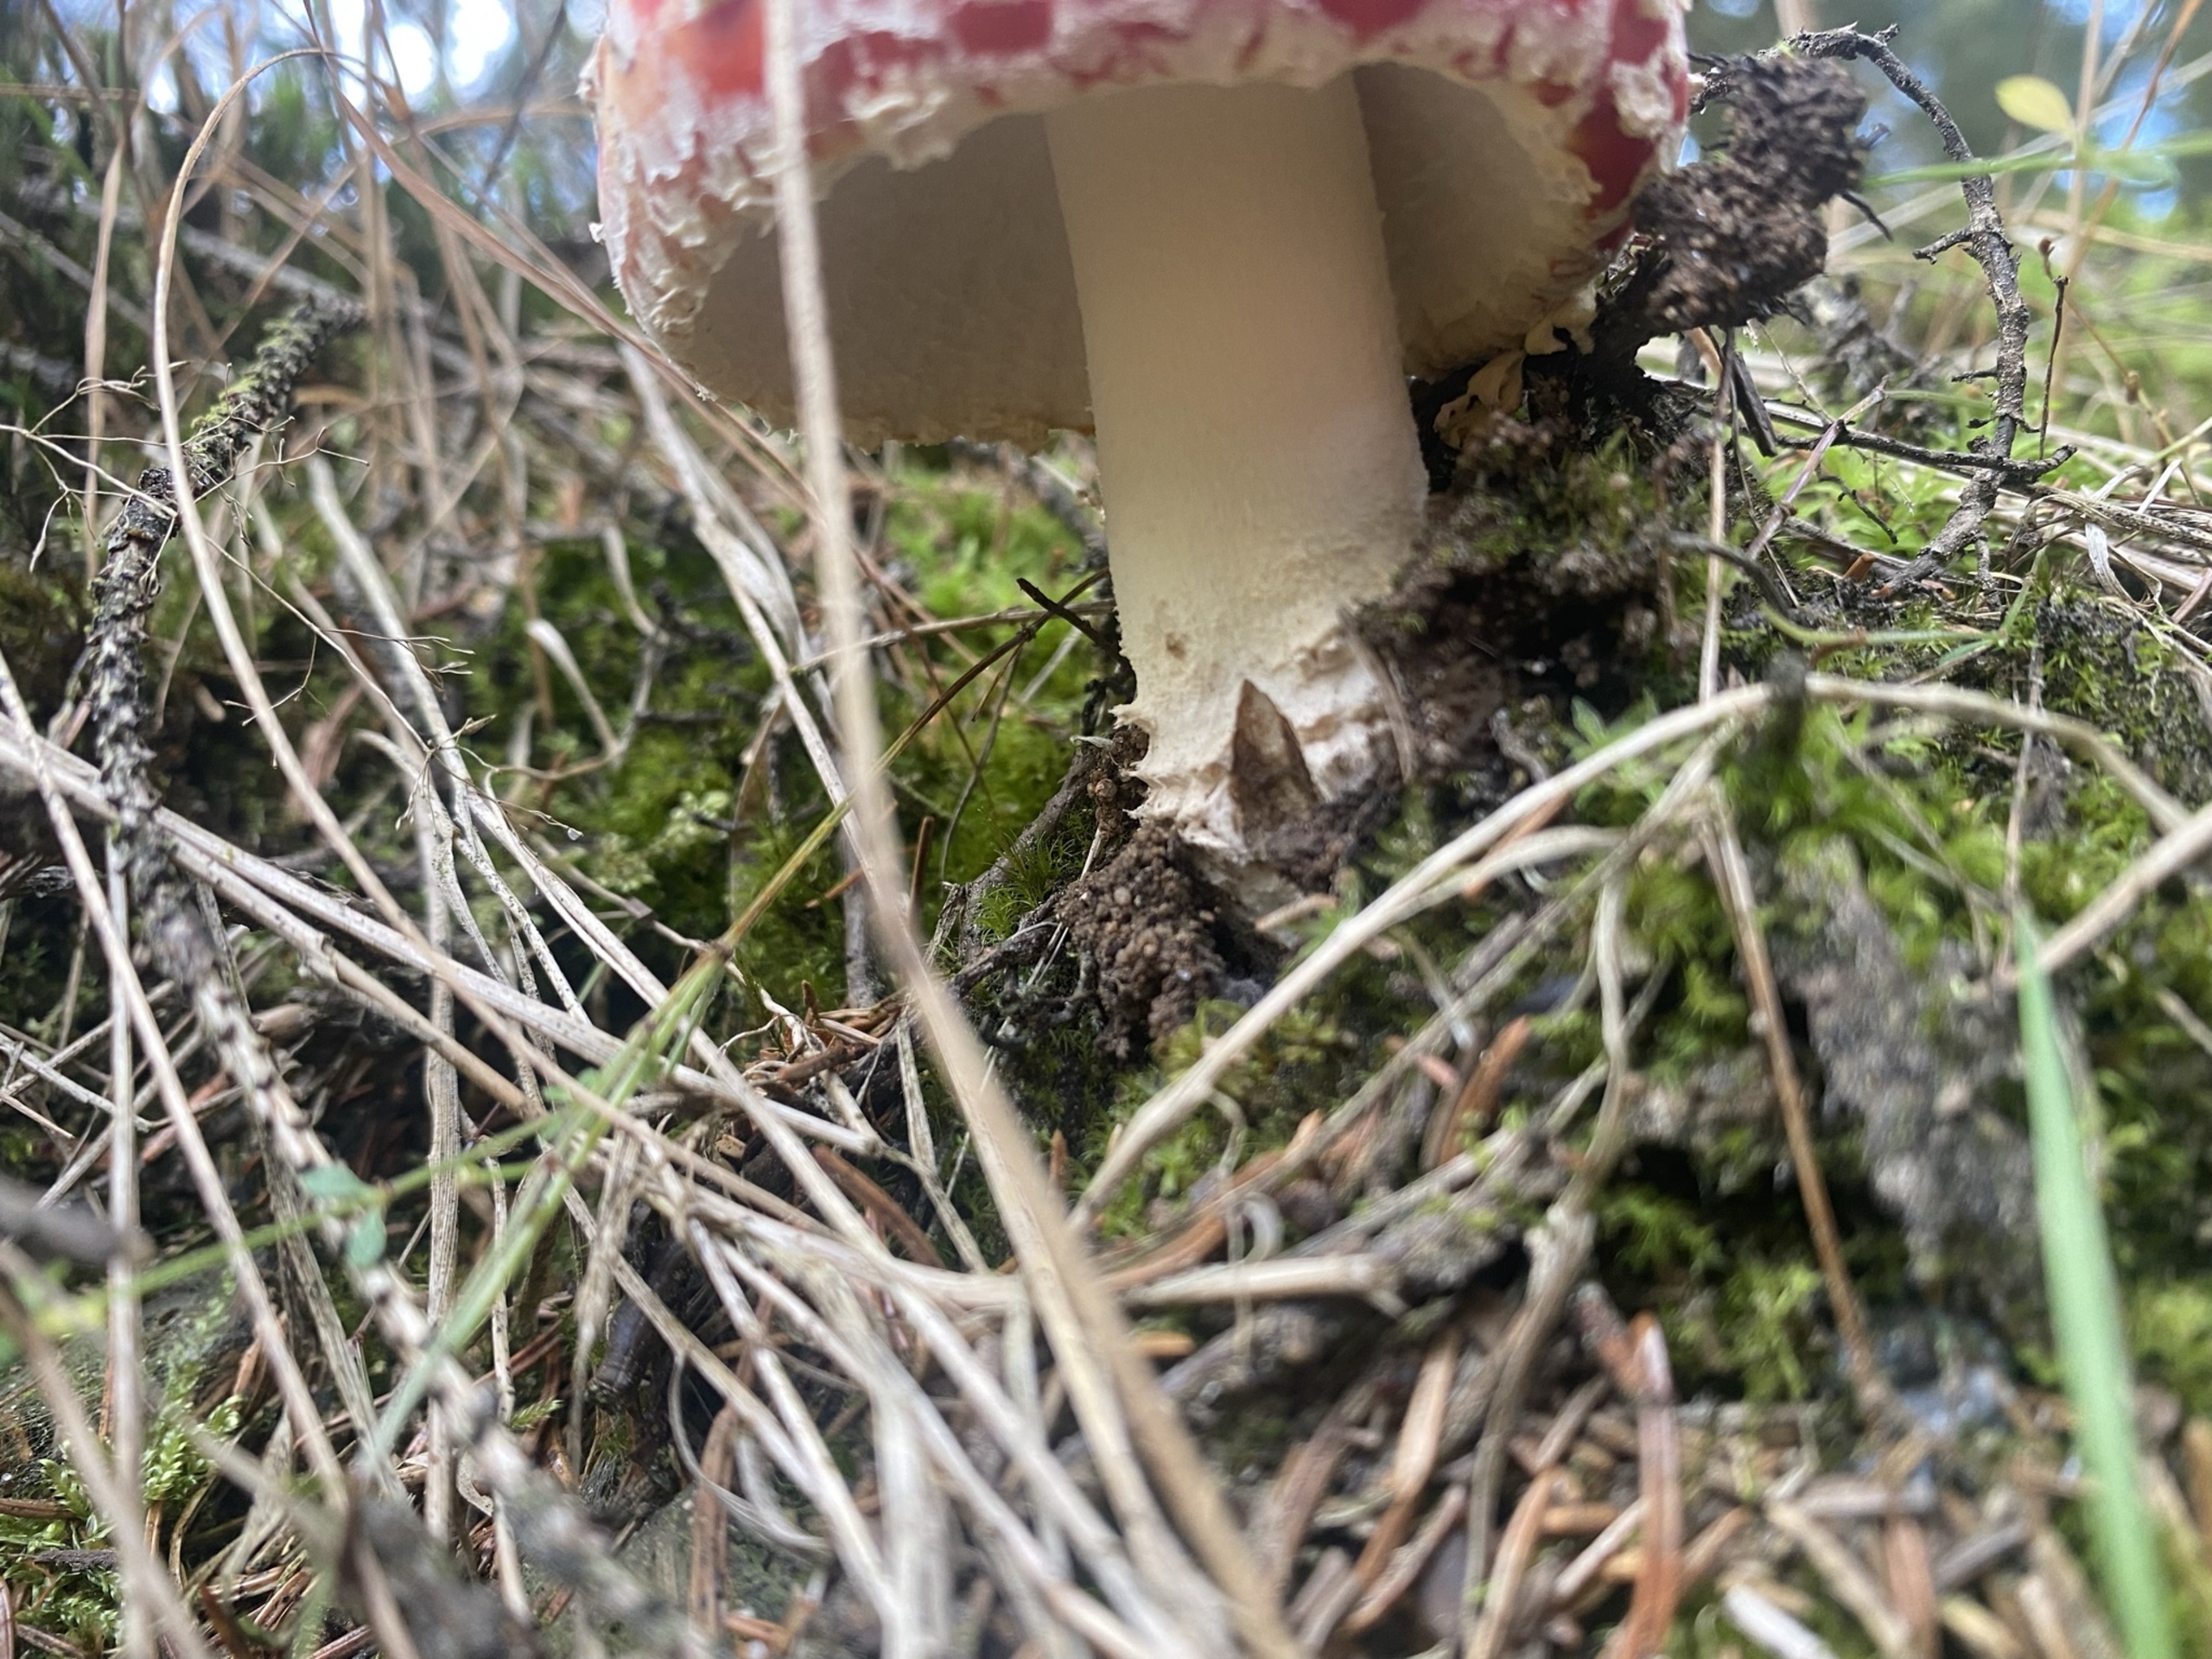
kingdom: Fungi
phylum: Basidiomycota
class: Agaricomycetes
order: Agaricales
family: Amanitaceae
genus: Amanita
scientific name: Amanita muscaria
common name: Rød fluesvamp
